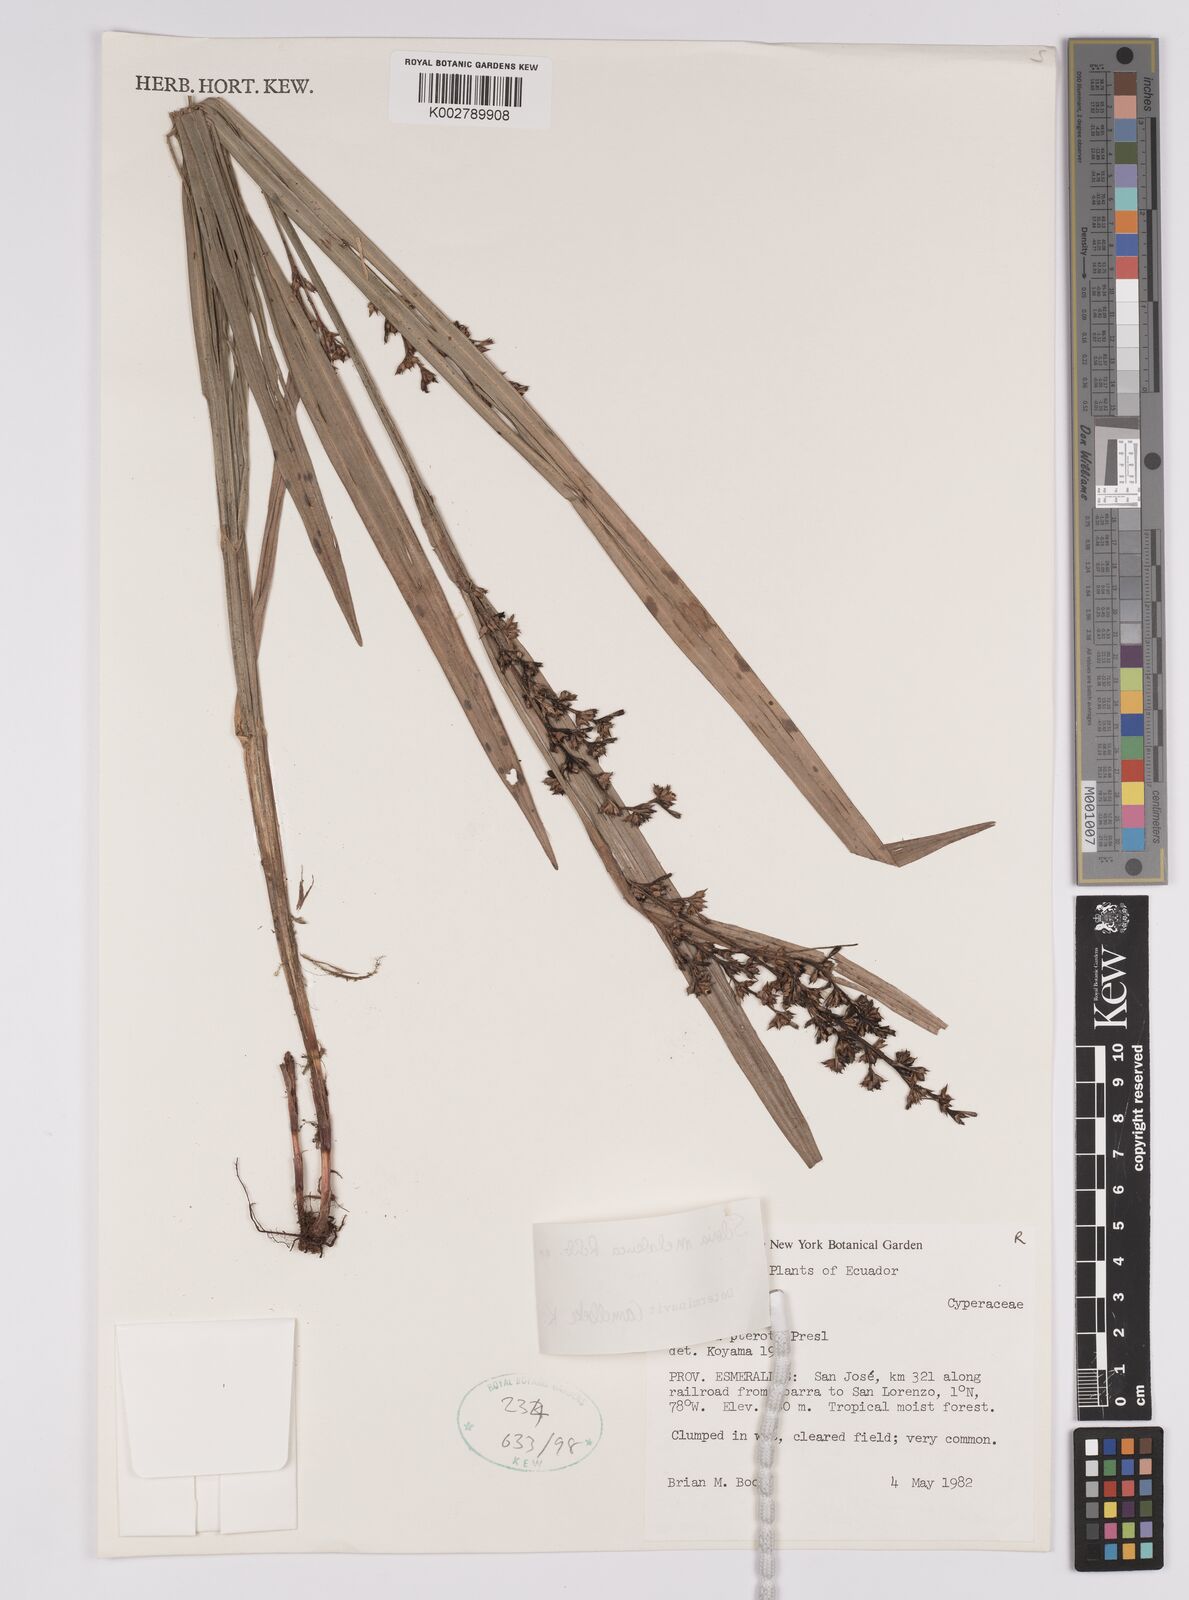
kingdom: Plantae
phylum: Tracheophyta
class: Liliopsida
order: Poales
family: Cyperaceae
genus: Scleria
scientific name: Scleria gaertneri
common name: Cortadera blanca
